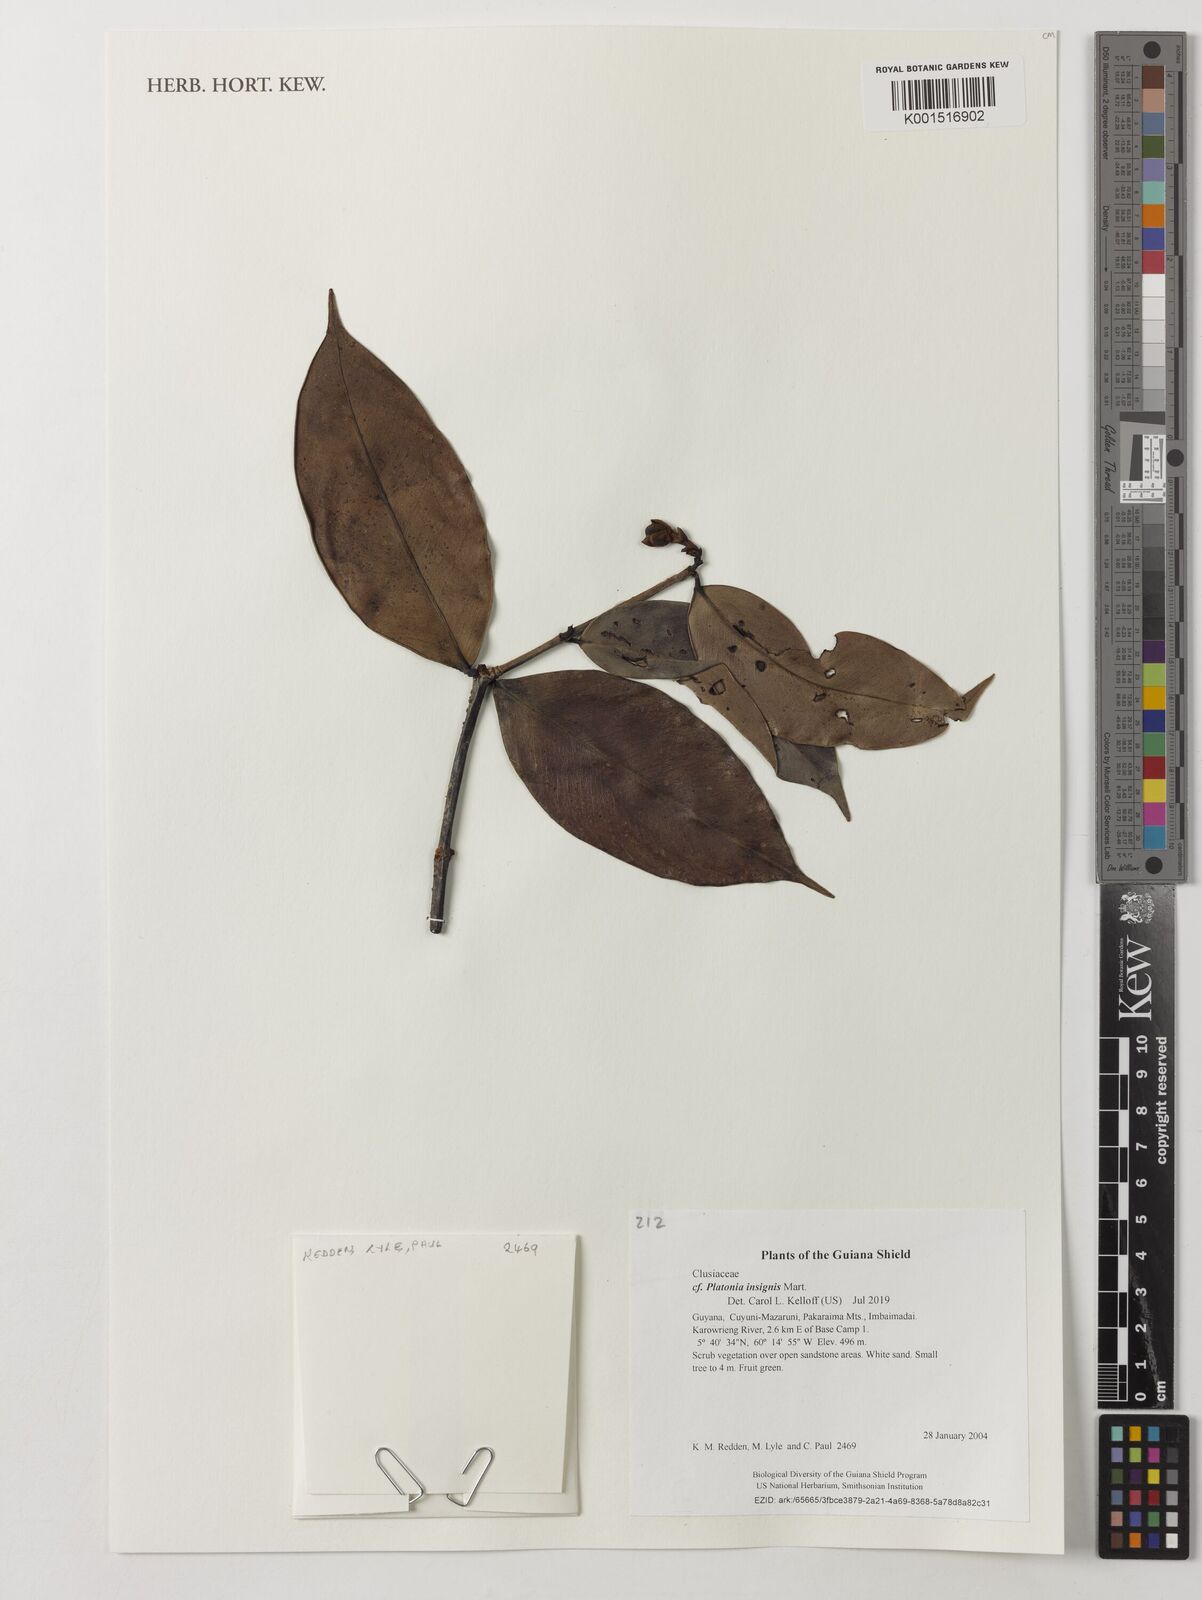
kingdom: Plantae
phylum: Tracheophyta
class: Magnoliopsida
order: Malpighiales
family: Clusiaceae
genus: Platonia
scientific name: Platonia insignis
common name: Bacury
